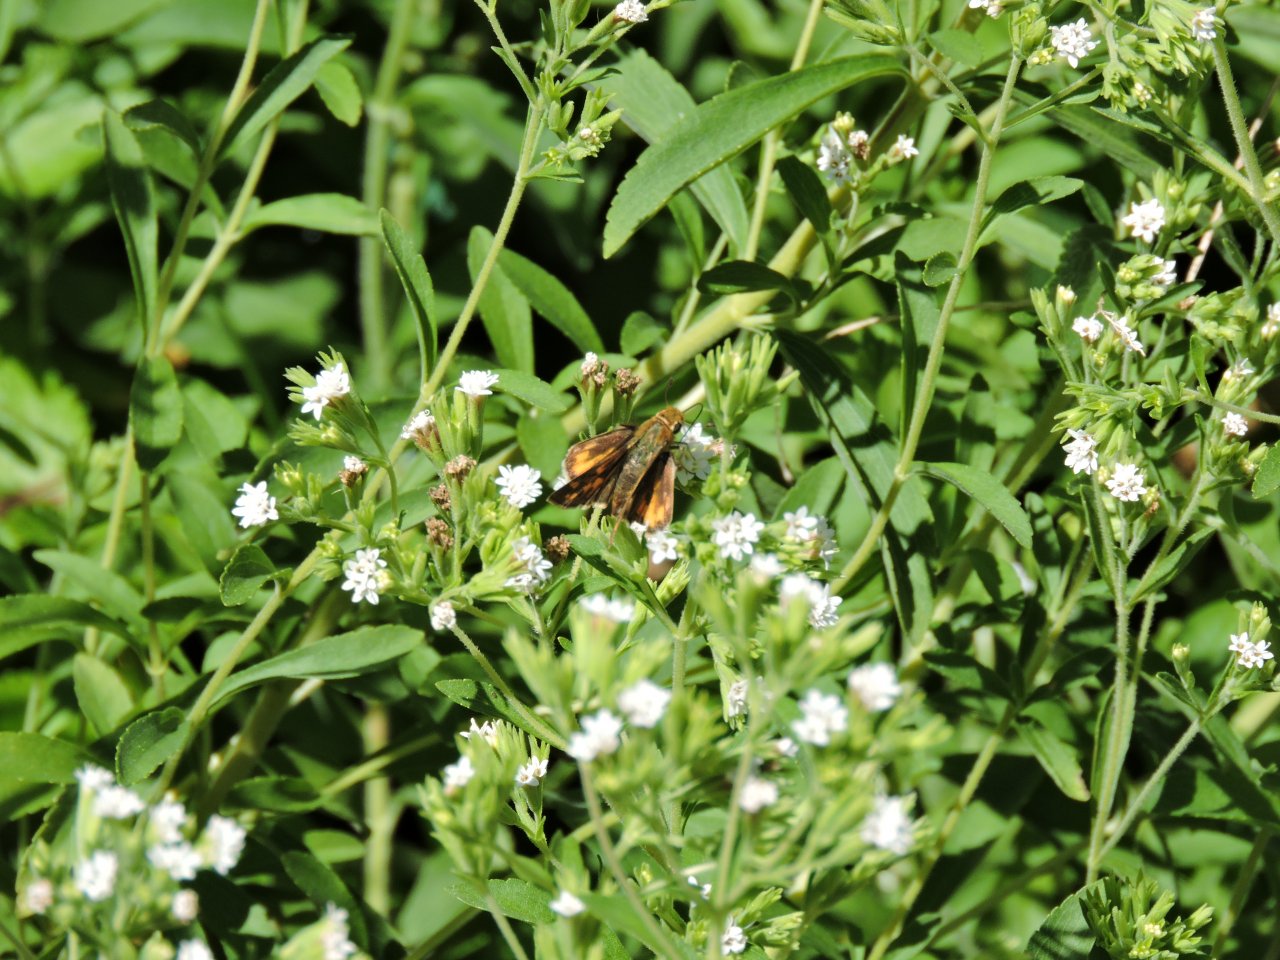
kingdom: Animalia
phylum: Arthropoda
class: Insecta
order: Lepidoptera
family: Hesperiidae
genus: Hylephila
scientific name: Hylephila phyleus
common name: Fiery Skipper
